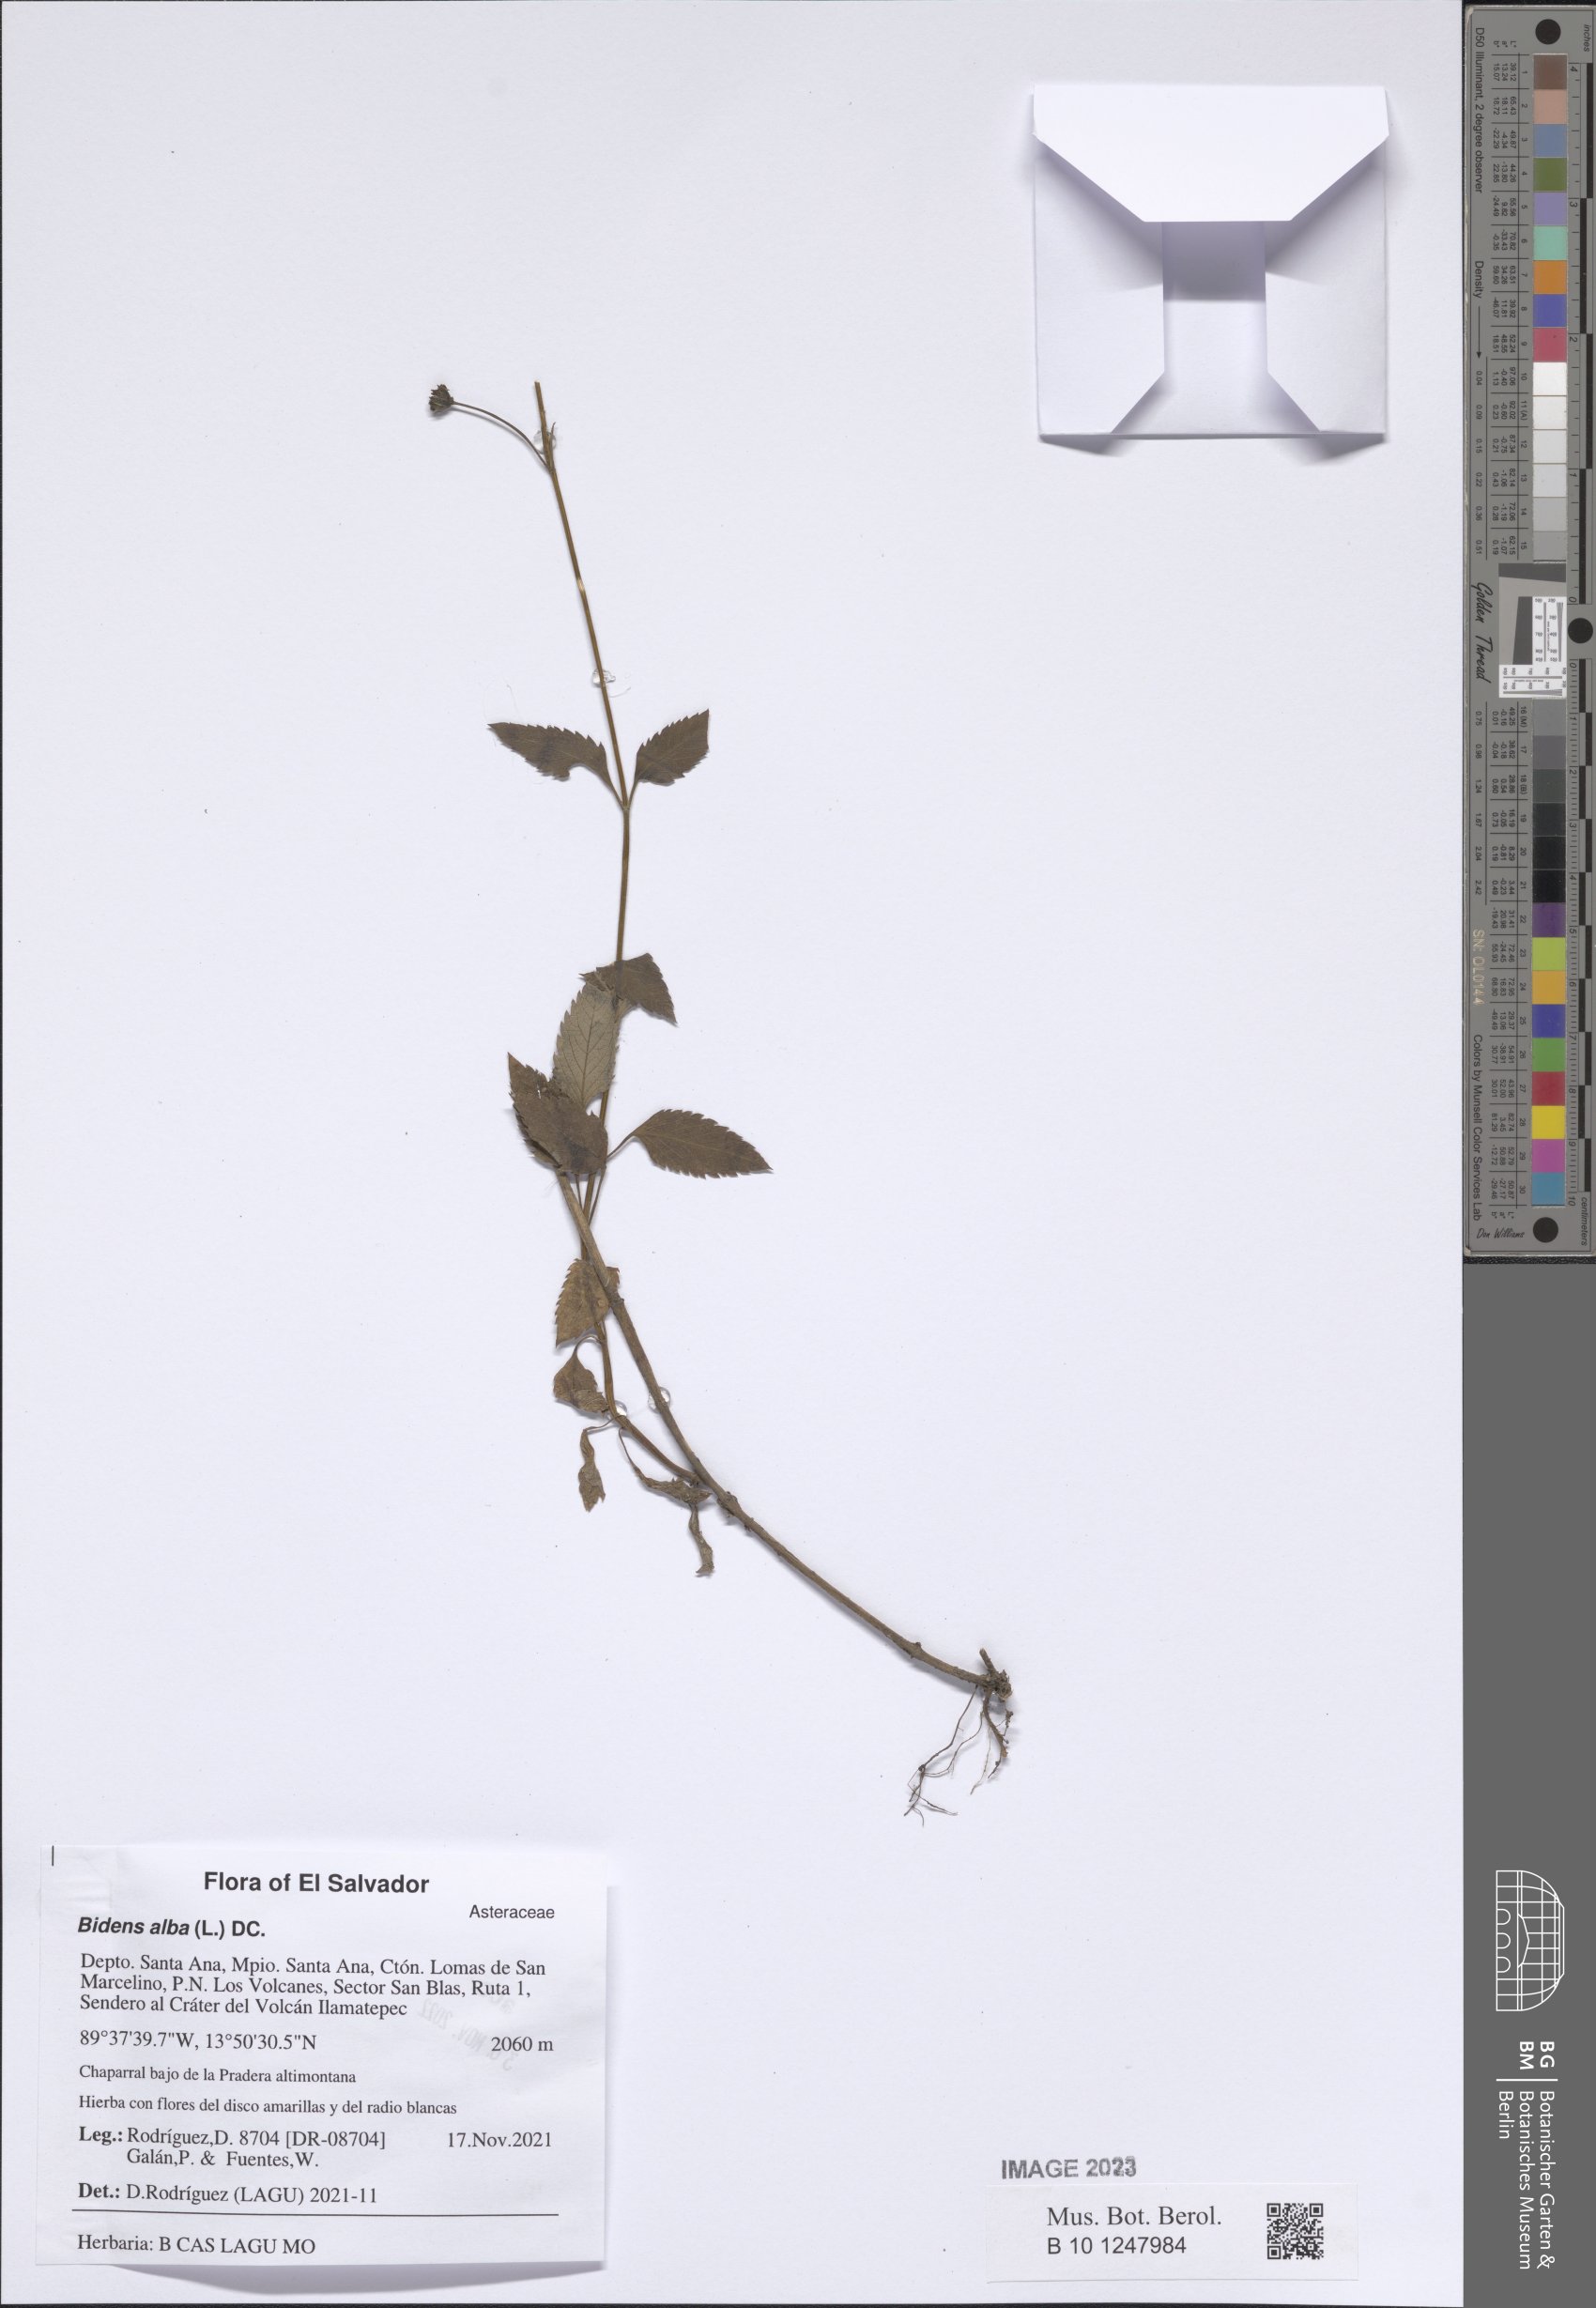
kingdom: Plantae
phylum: Tracheophyta
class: Magnoliopsida
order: Asterales
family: Asteraceae
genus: Bidens
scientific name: Bidens alba
